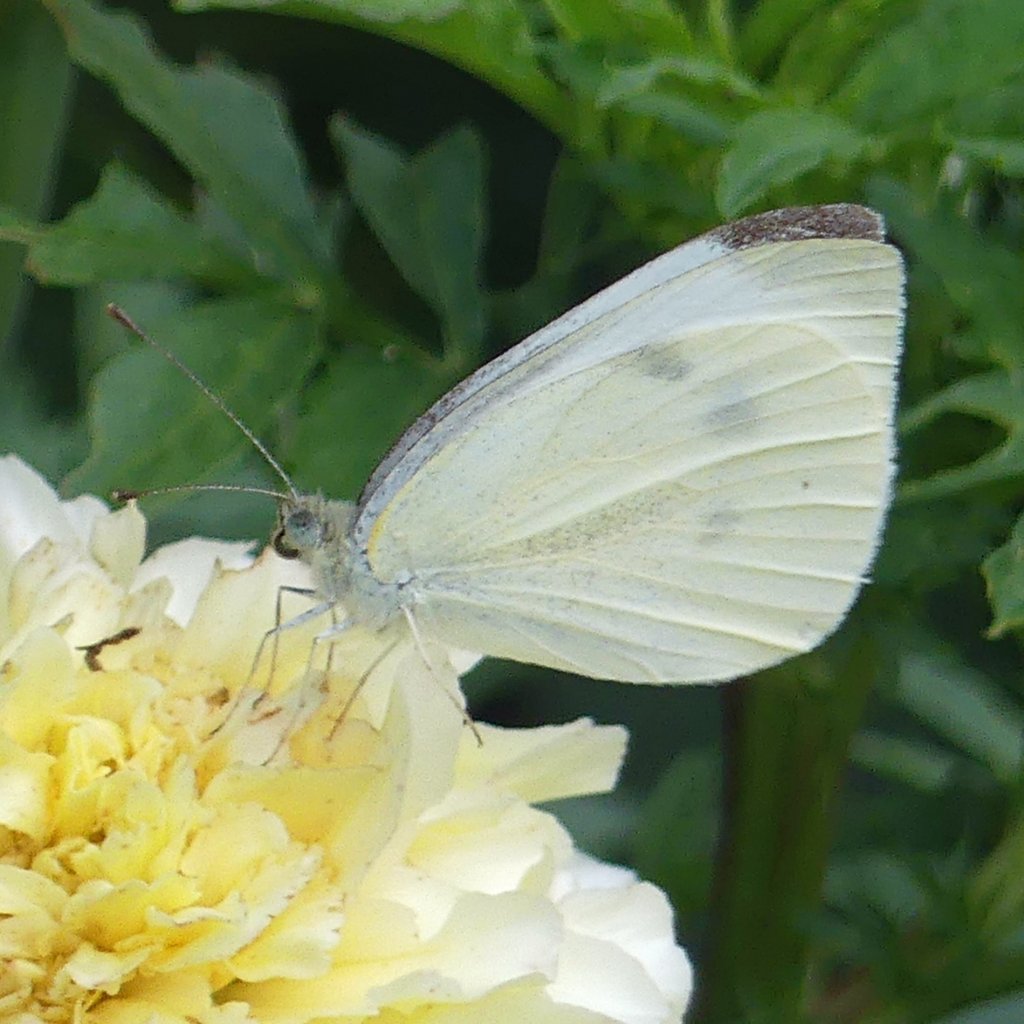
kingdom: Animalia
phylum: Arthropoda
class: Insecta
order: Lepidoptera
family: Pieridae
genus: Pieris
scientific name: Pieris rapae
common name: Cabbage White
